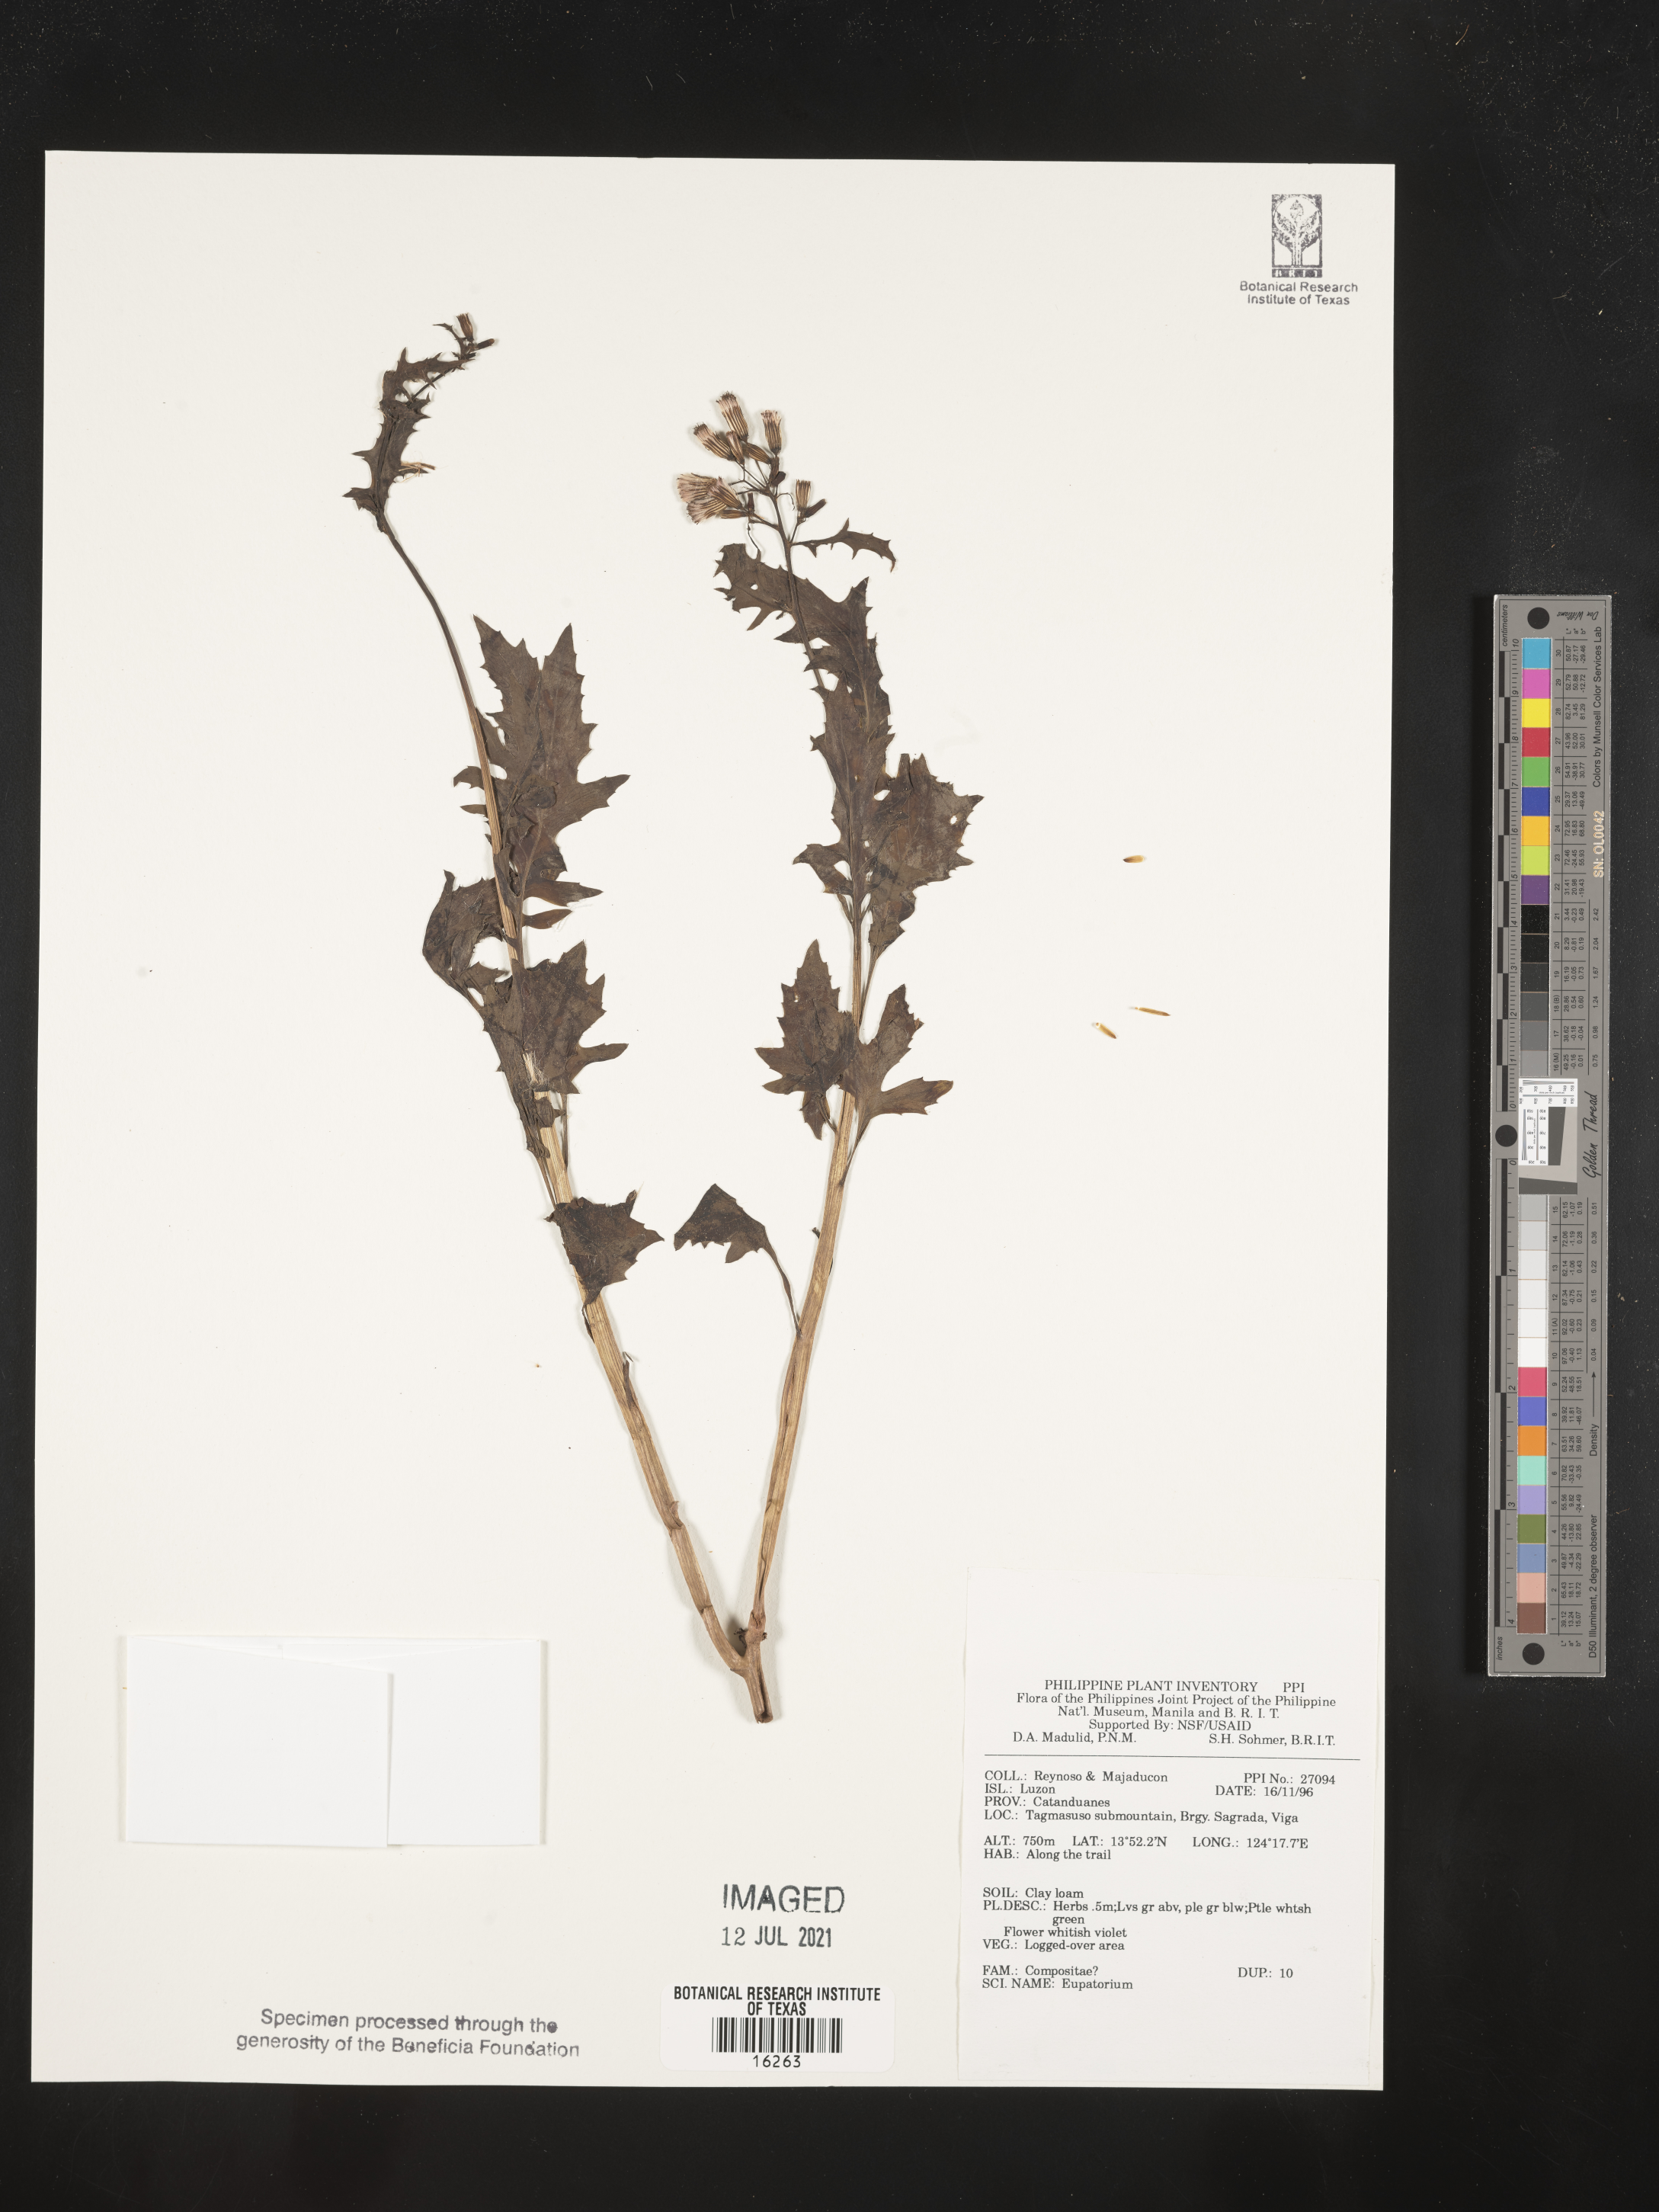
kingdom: Plantae
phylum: Tracheophyta
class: Magnoliopsida
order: Asterales
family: Asteraceae
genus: Eupatorium
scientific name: Eupatorium
